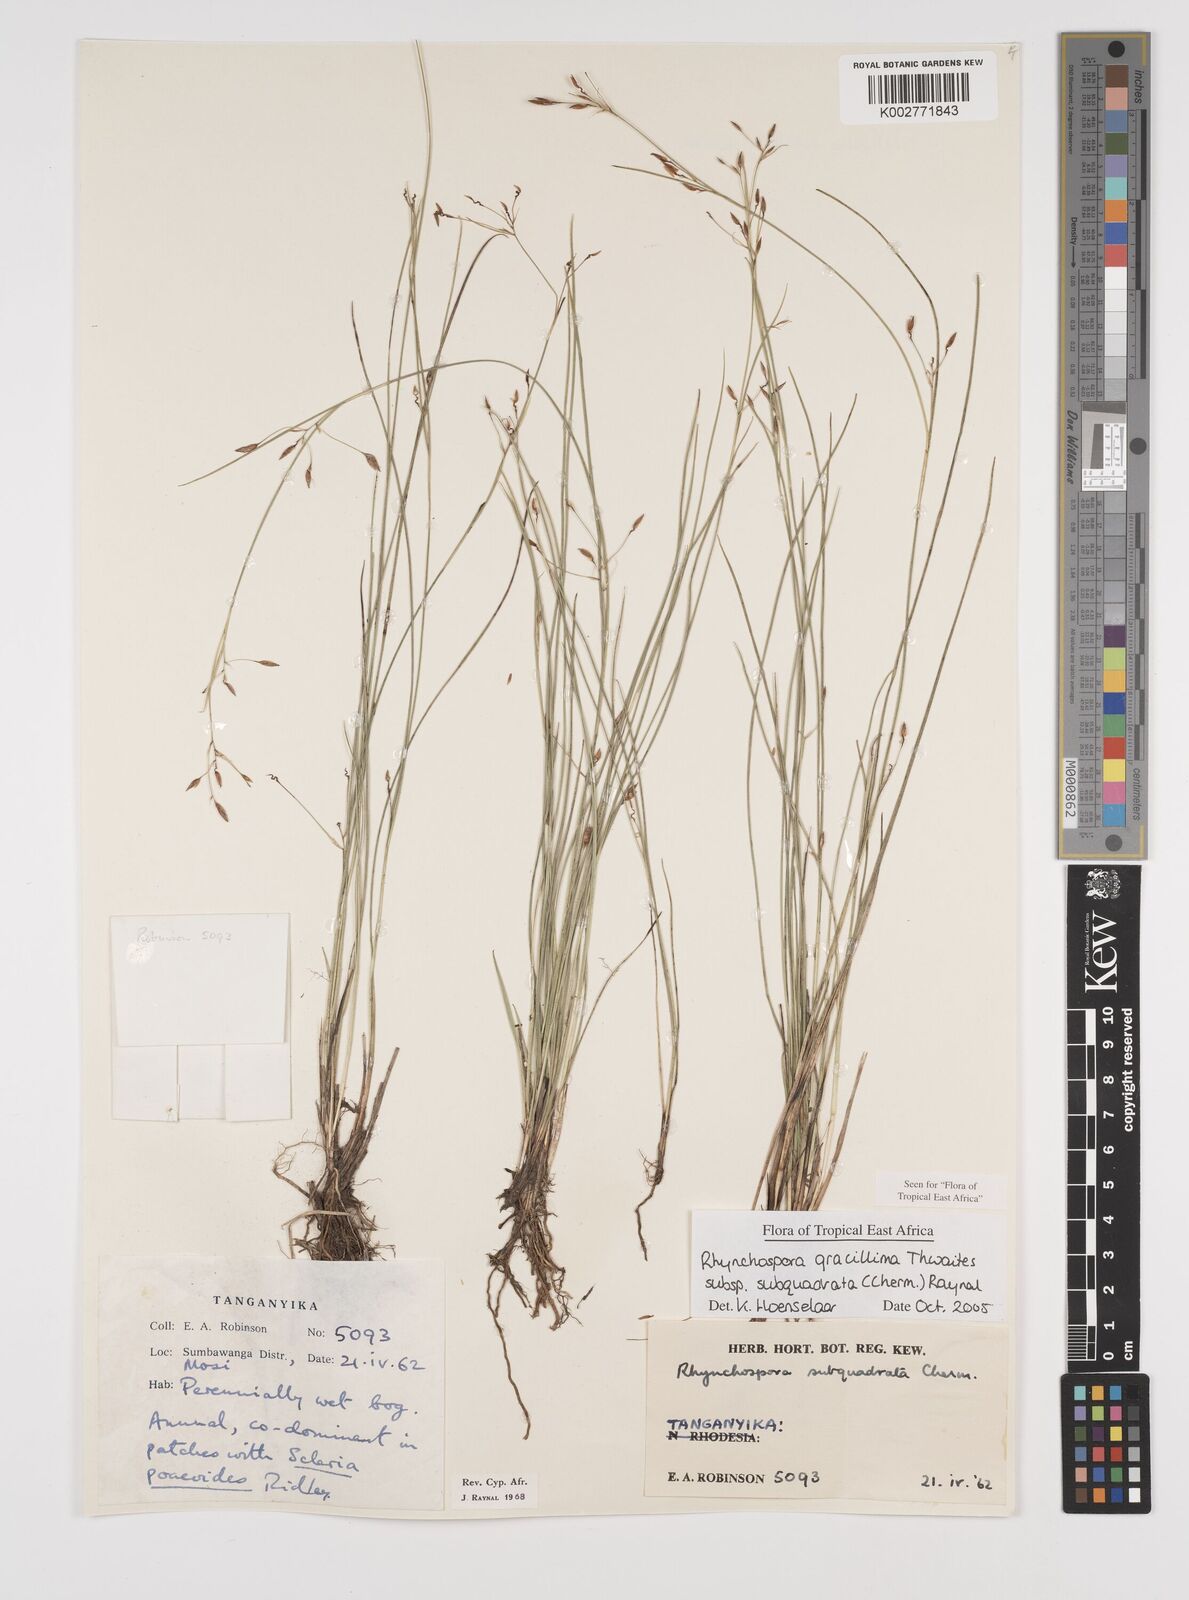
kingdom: Plantae
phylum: Tracheophyta
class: Liliopsida
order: Poales
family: Cyperaceae
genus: Rhynchospora
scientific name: Rhynchospora gracillima
